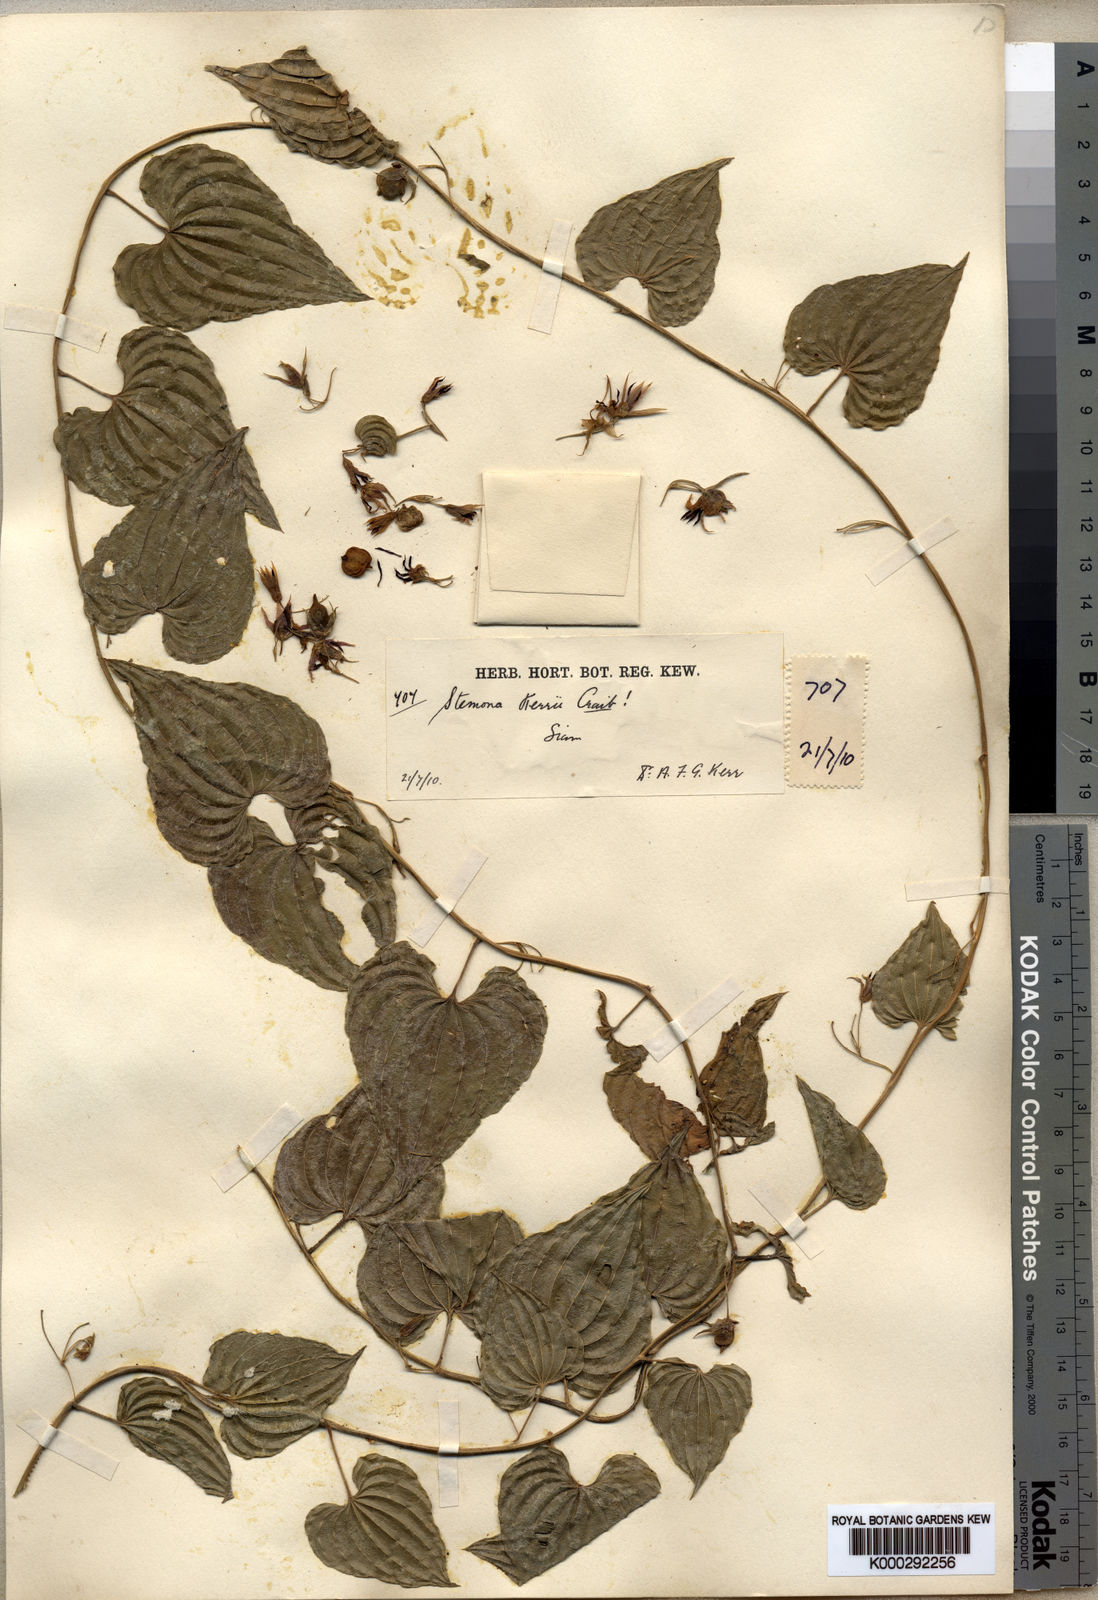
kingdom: Plantae
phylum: Tracheophyta
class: Liliopsida
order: Pandanales
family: Stemonaceae
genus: Stemona
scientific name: Stemona kerrii
